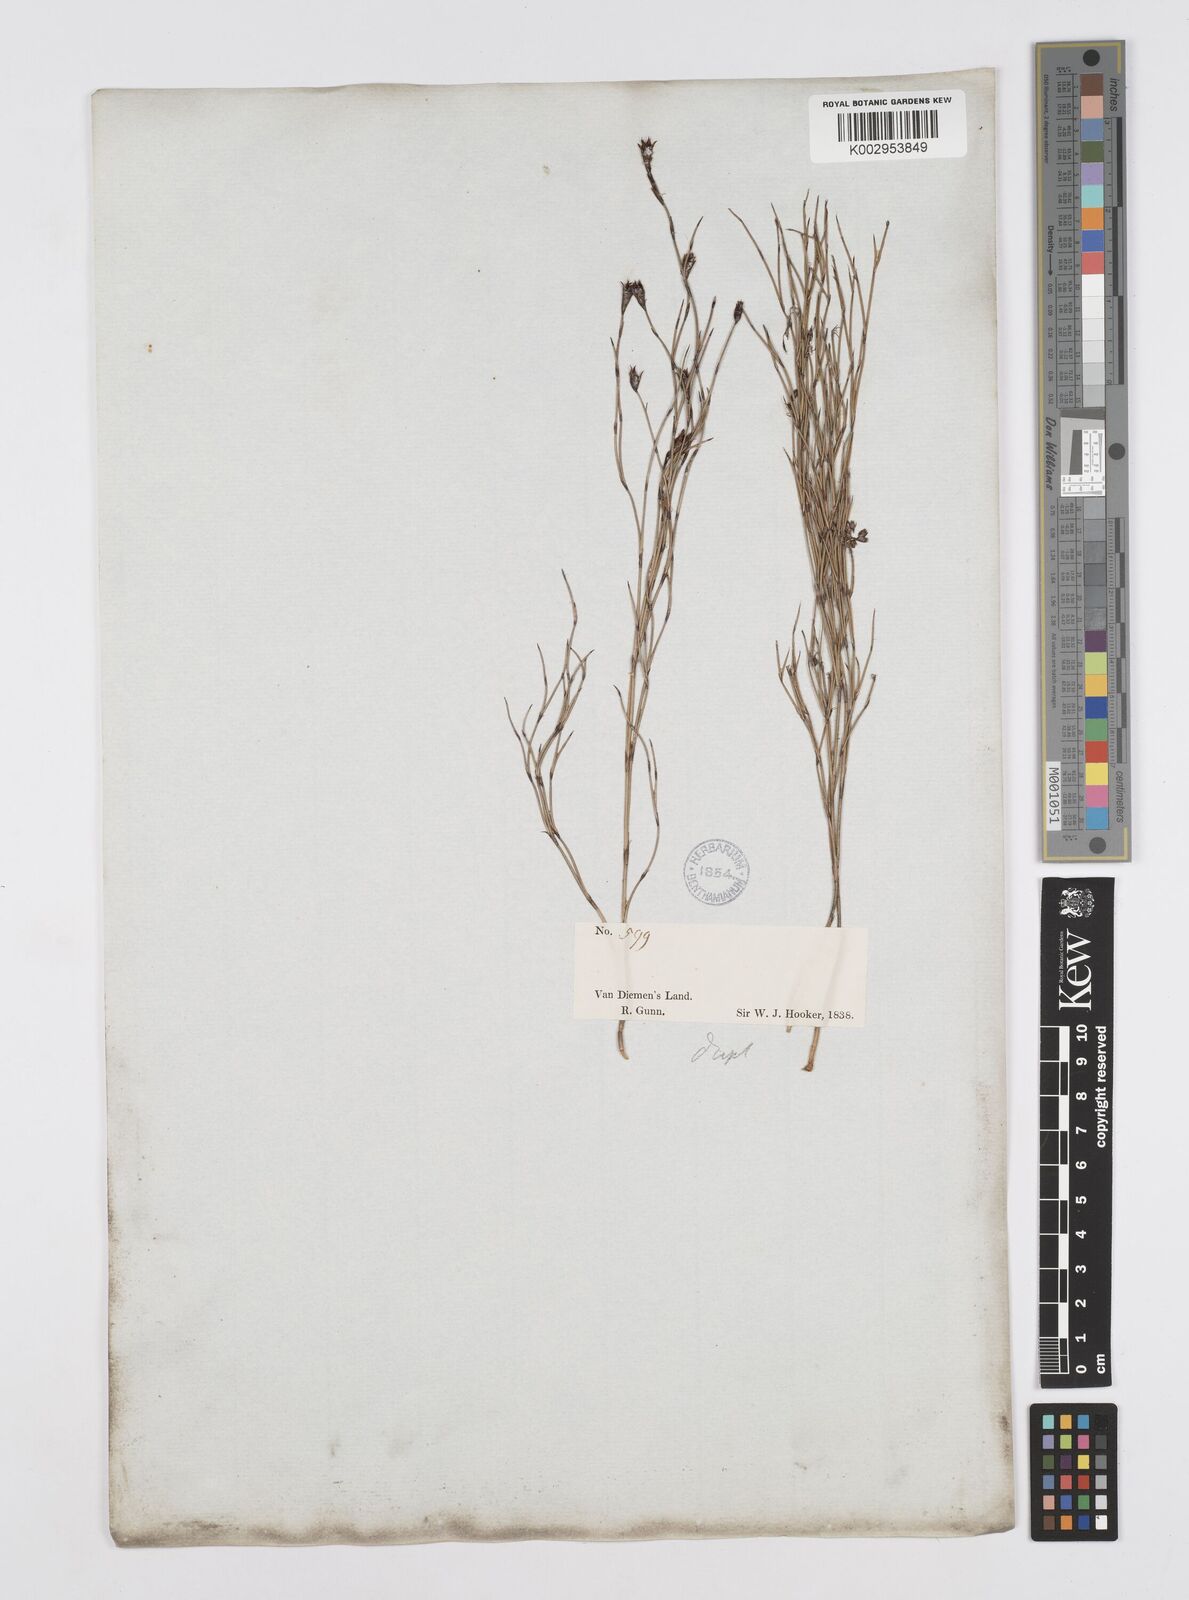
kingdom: Plantae
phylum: Tracheophyta
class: Liliopsida
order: Poales
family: Restionaceae
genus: Hypolaena
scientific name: Hypolaena fastigiata
